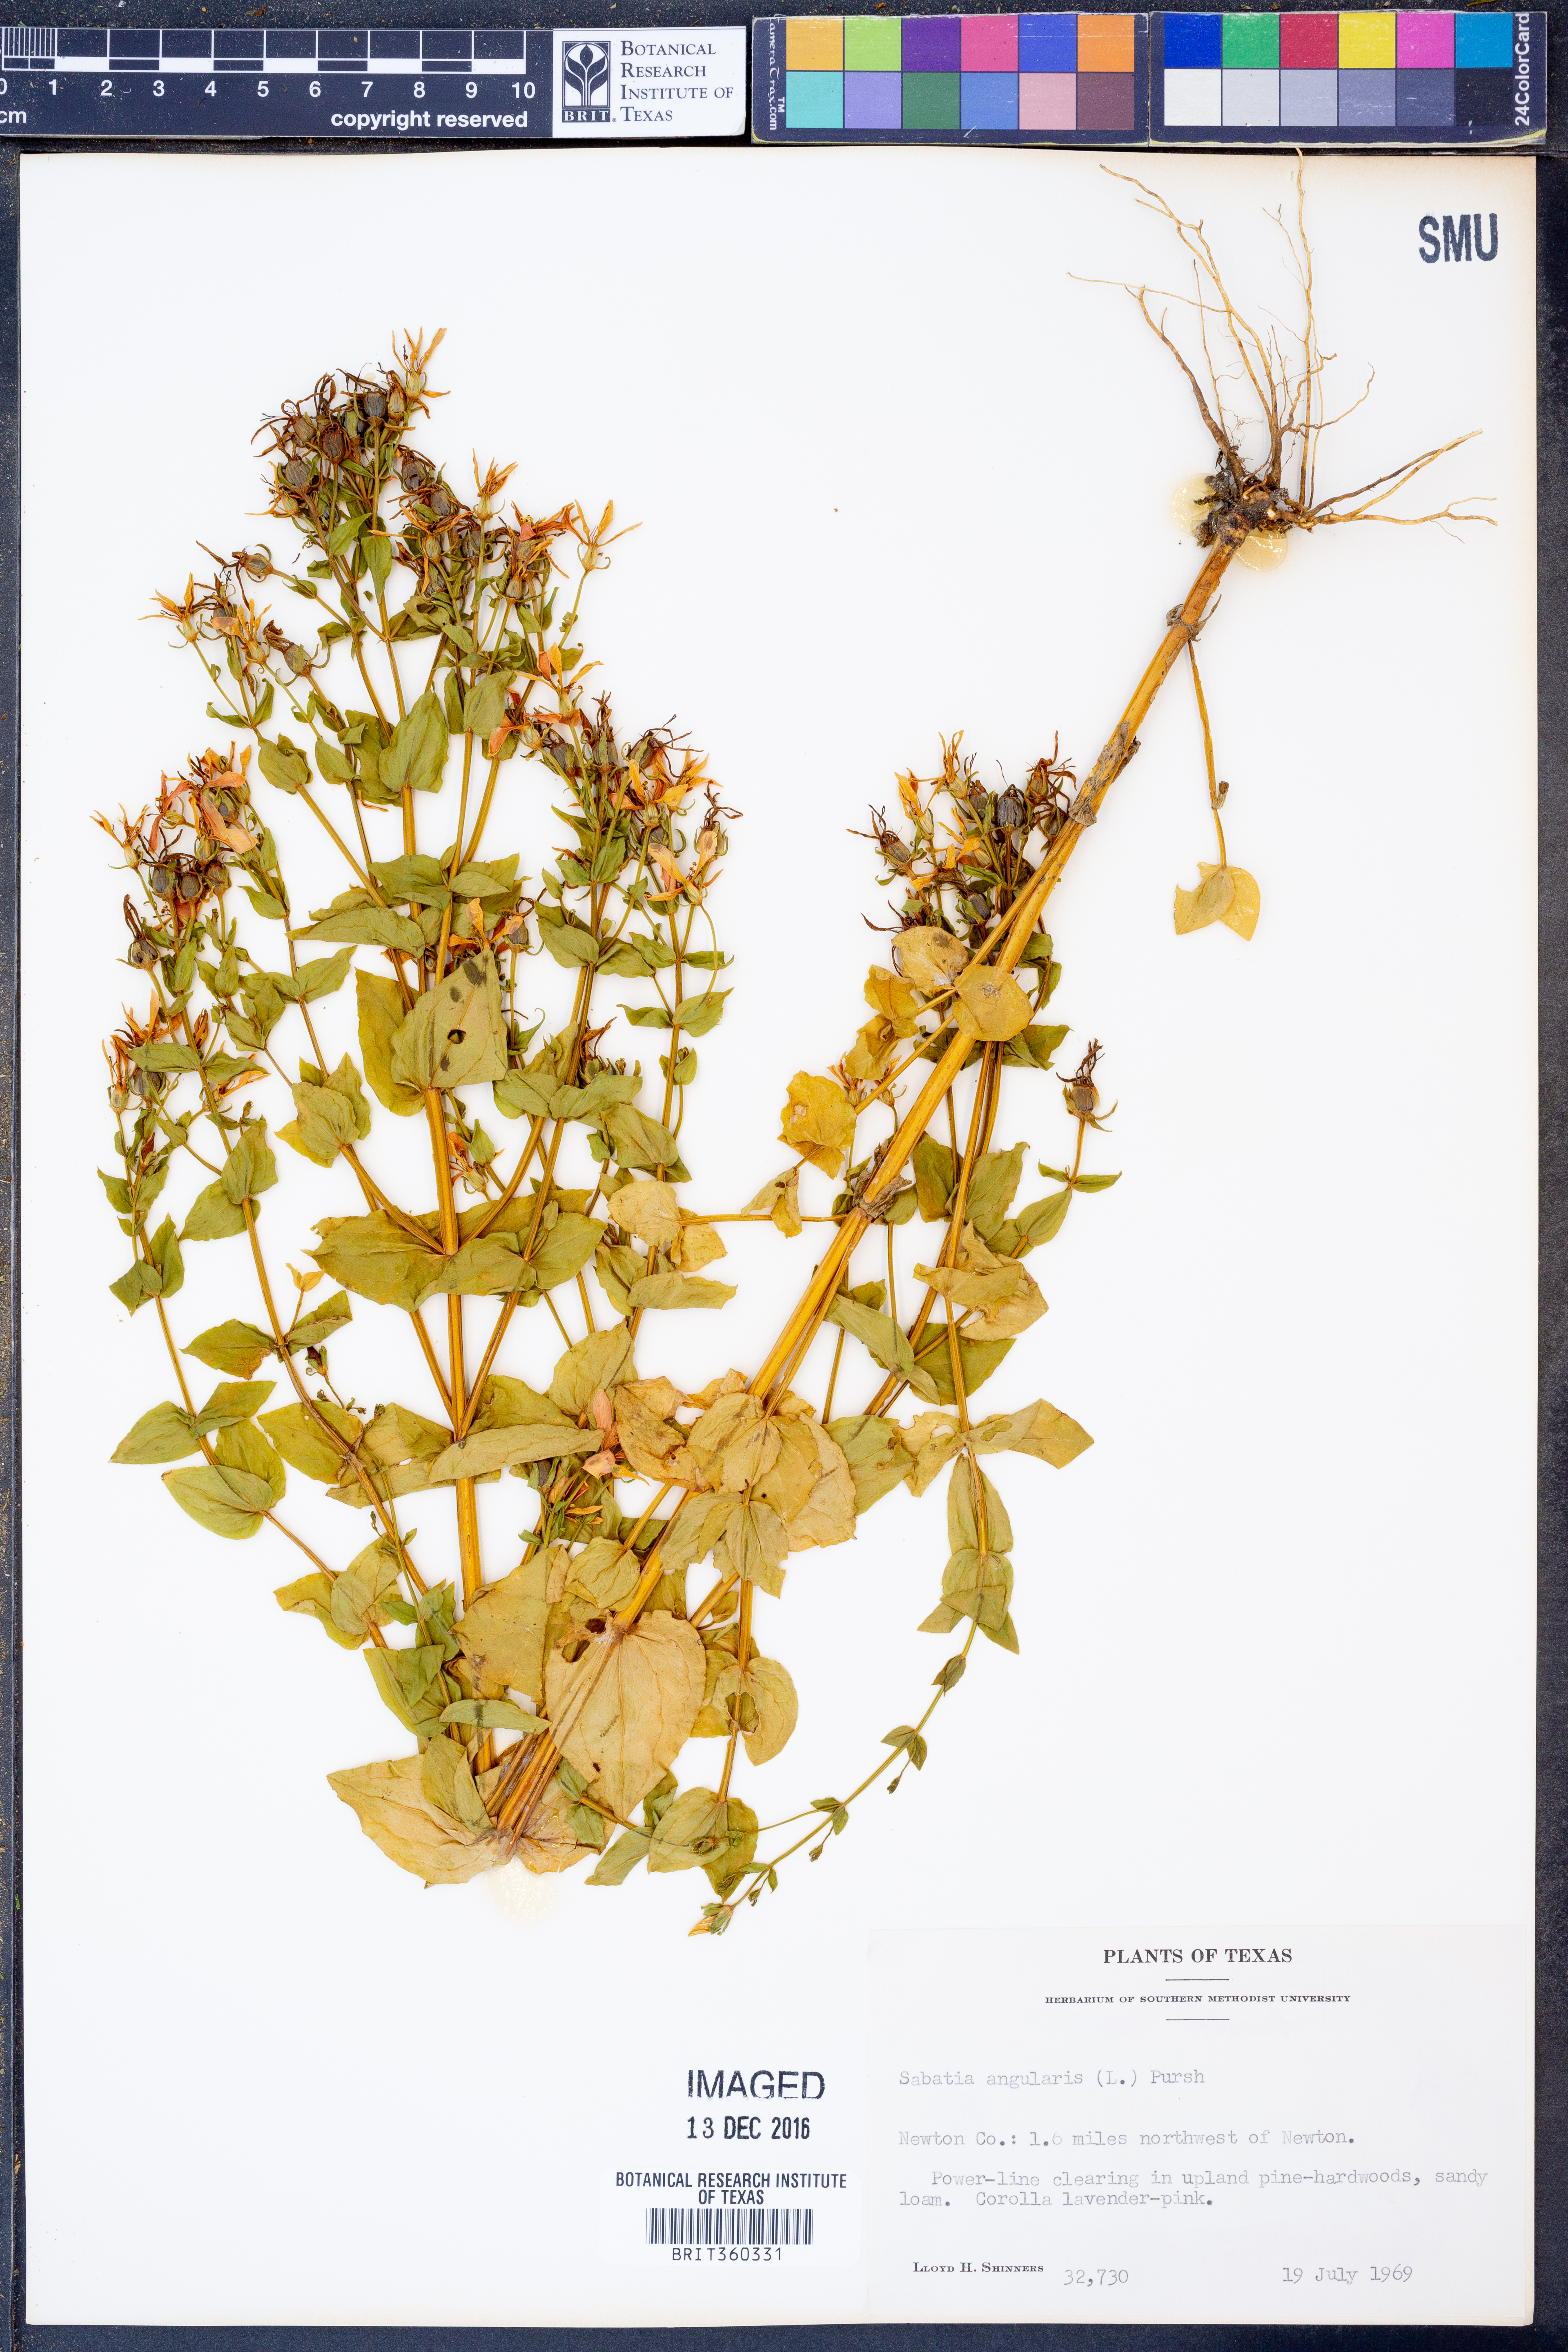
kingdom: Plantae
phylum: Tracheophyta
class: Magnoliopsida
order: Gentianales
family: Gentianaceae
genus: Sabatia
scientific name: Sabatia angularis
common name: Rose-pink
